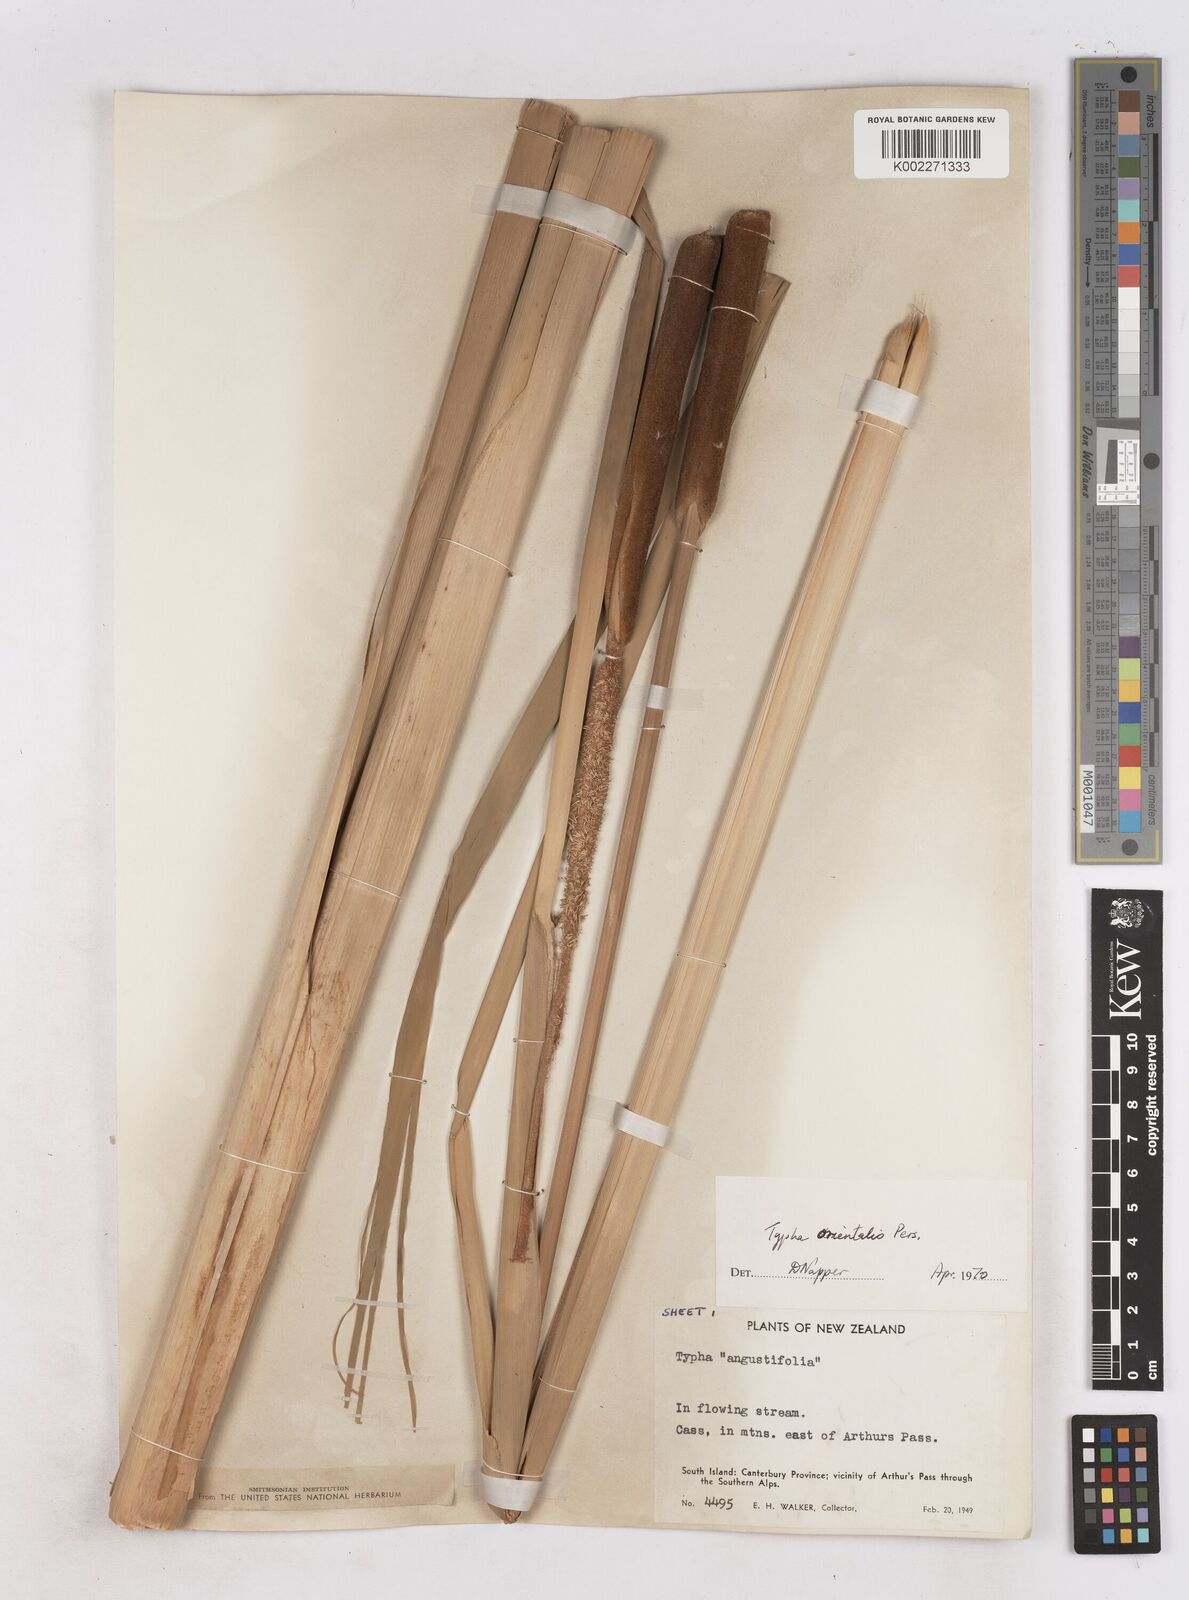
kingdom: Plantae
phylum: Tracheophyta
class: Liliopsida
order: Poales
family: Typhaceae
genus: Typha
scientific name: Typha orientalis
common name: Bullrush
